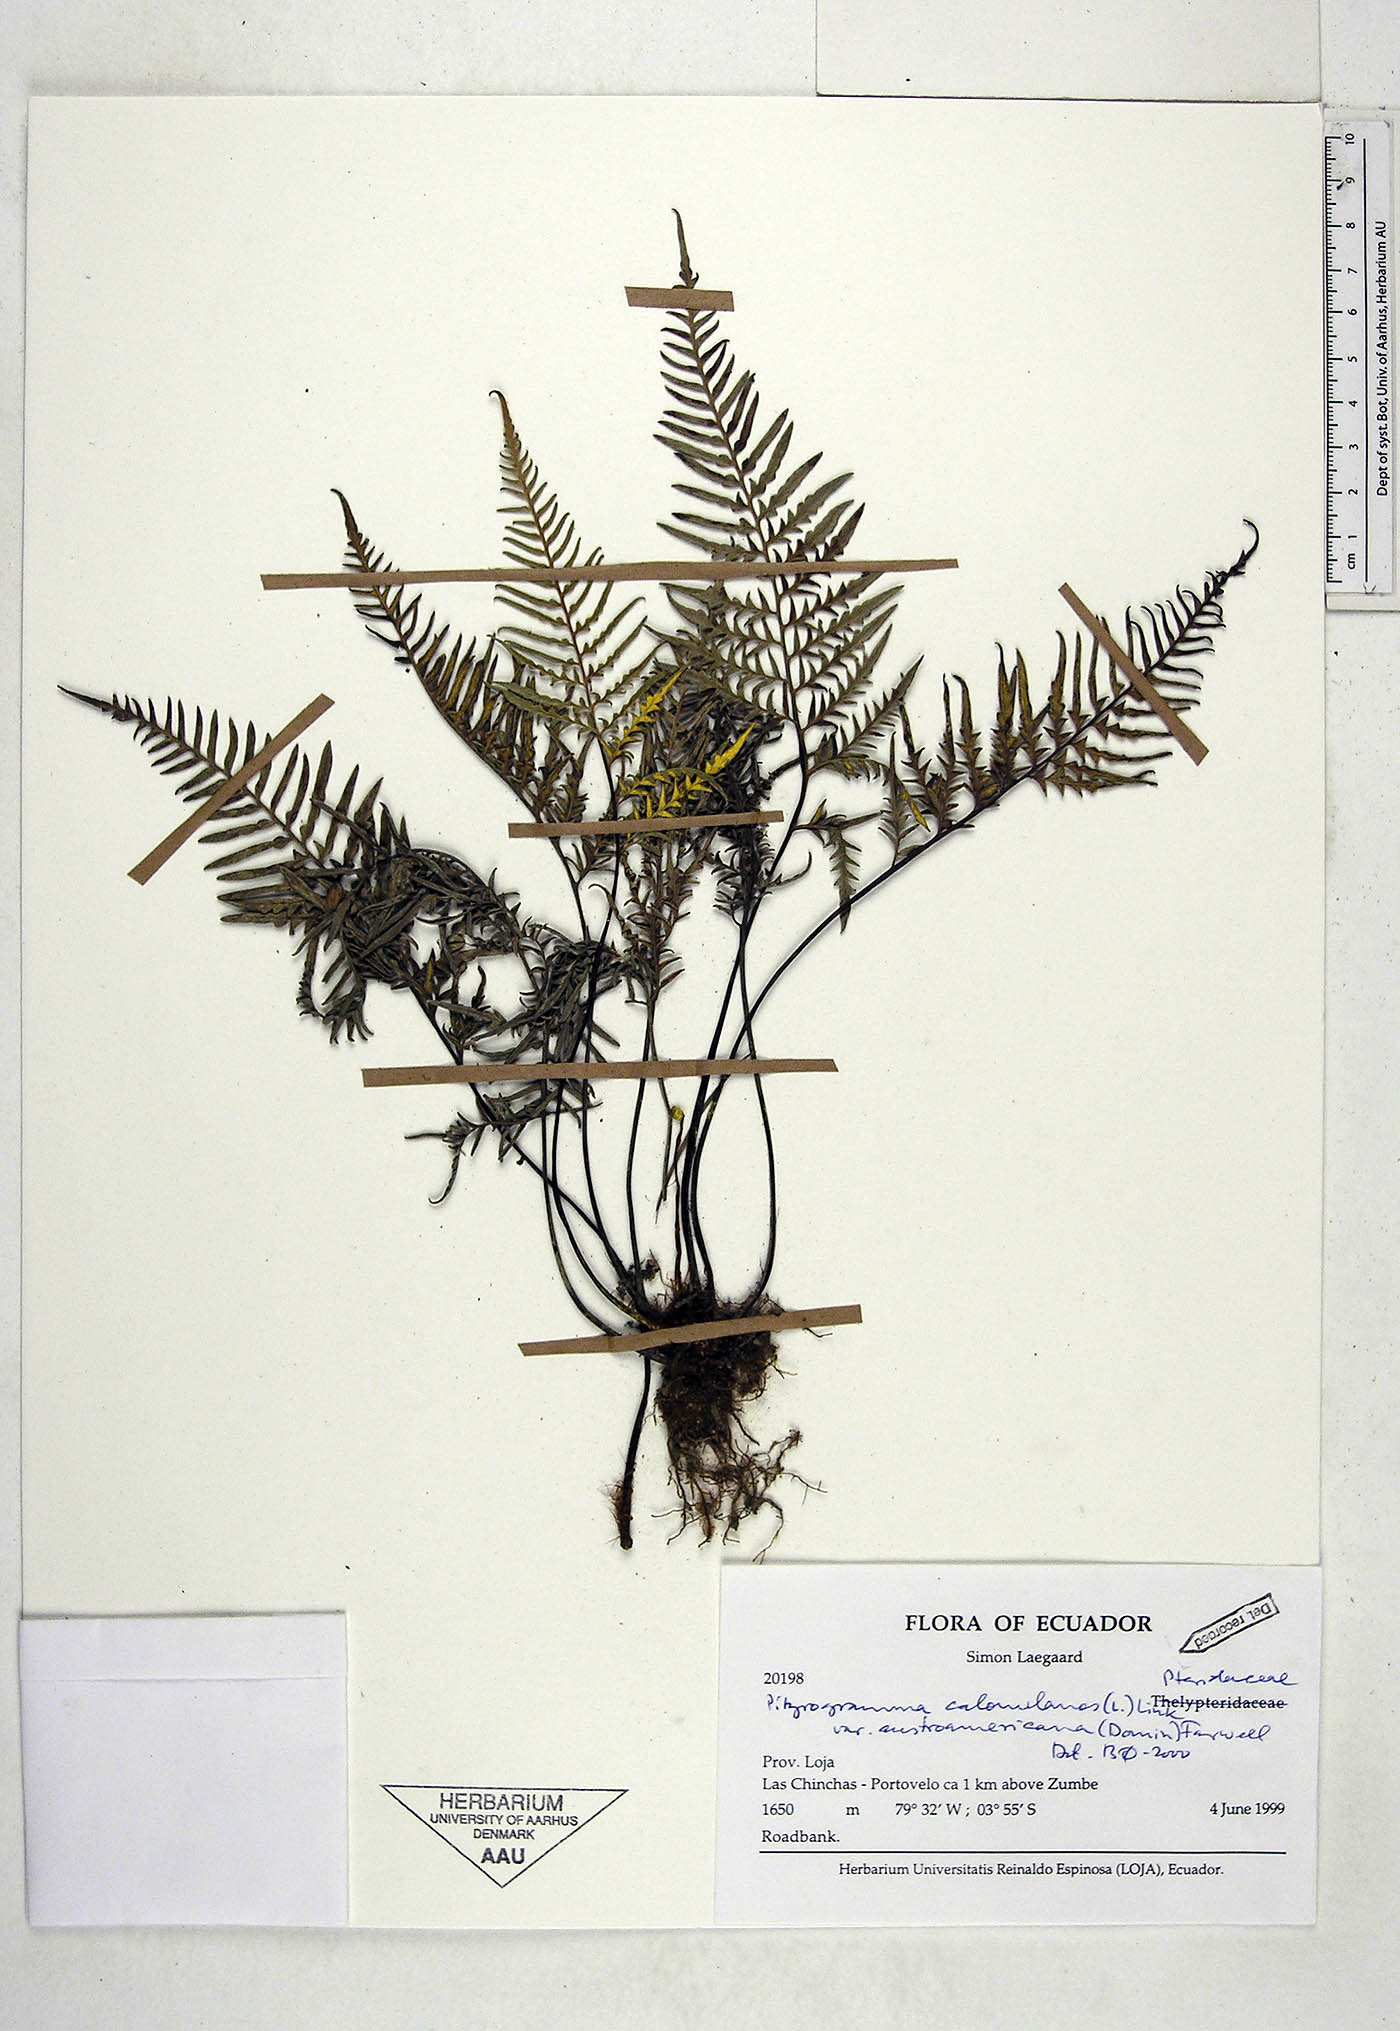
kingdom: Plantae
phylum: Tracheophyta
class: Polypodiopsida
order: Polypodiales
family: Pteridaceae
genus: Pityrogramma
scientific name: Pityrogramma austroamericana
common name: Leatherleaf goldback fern
